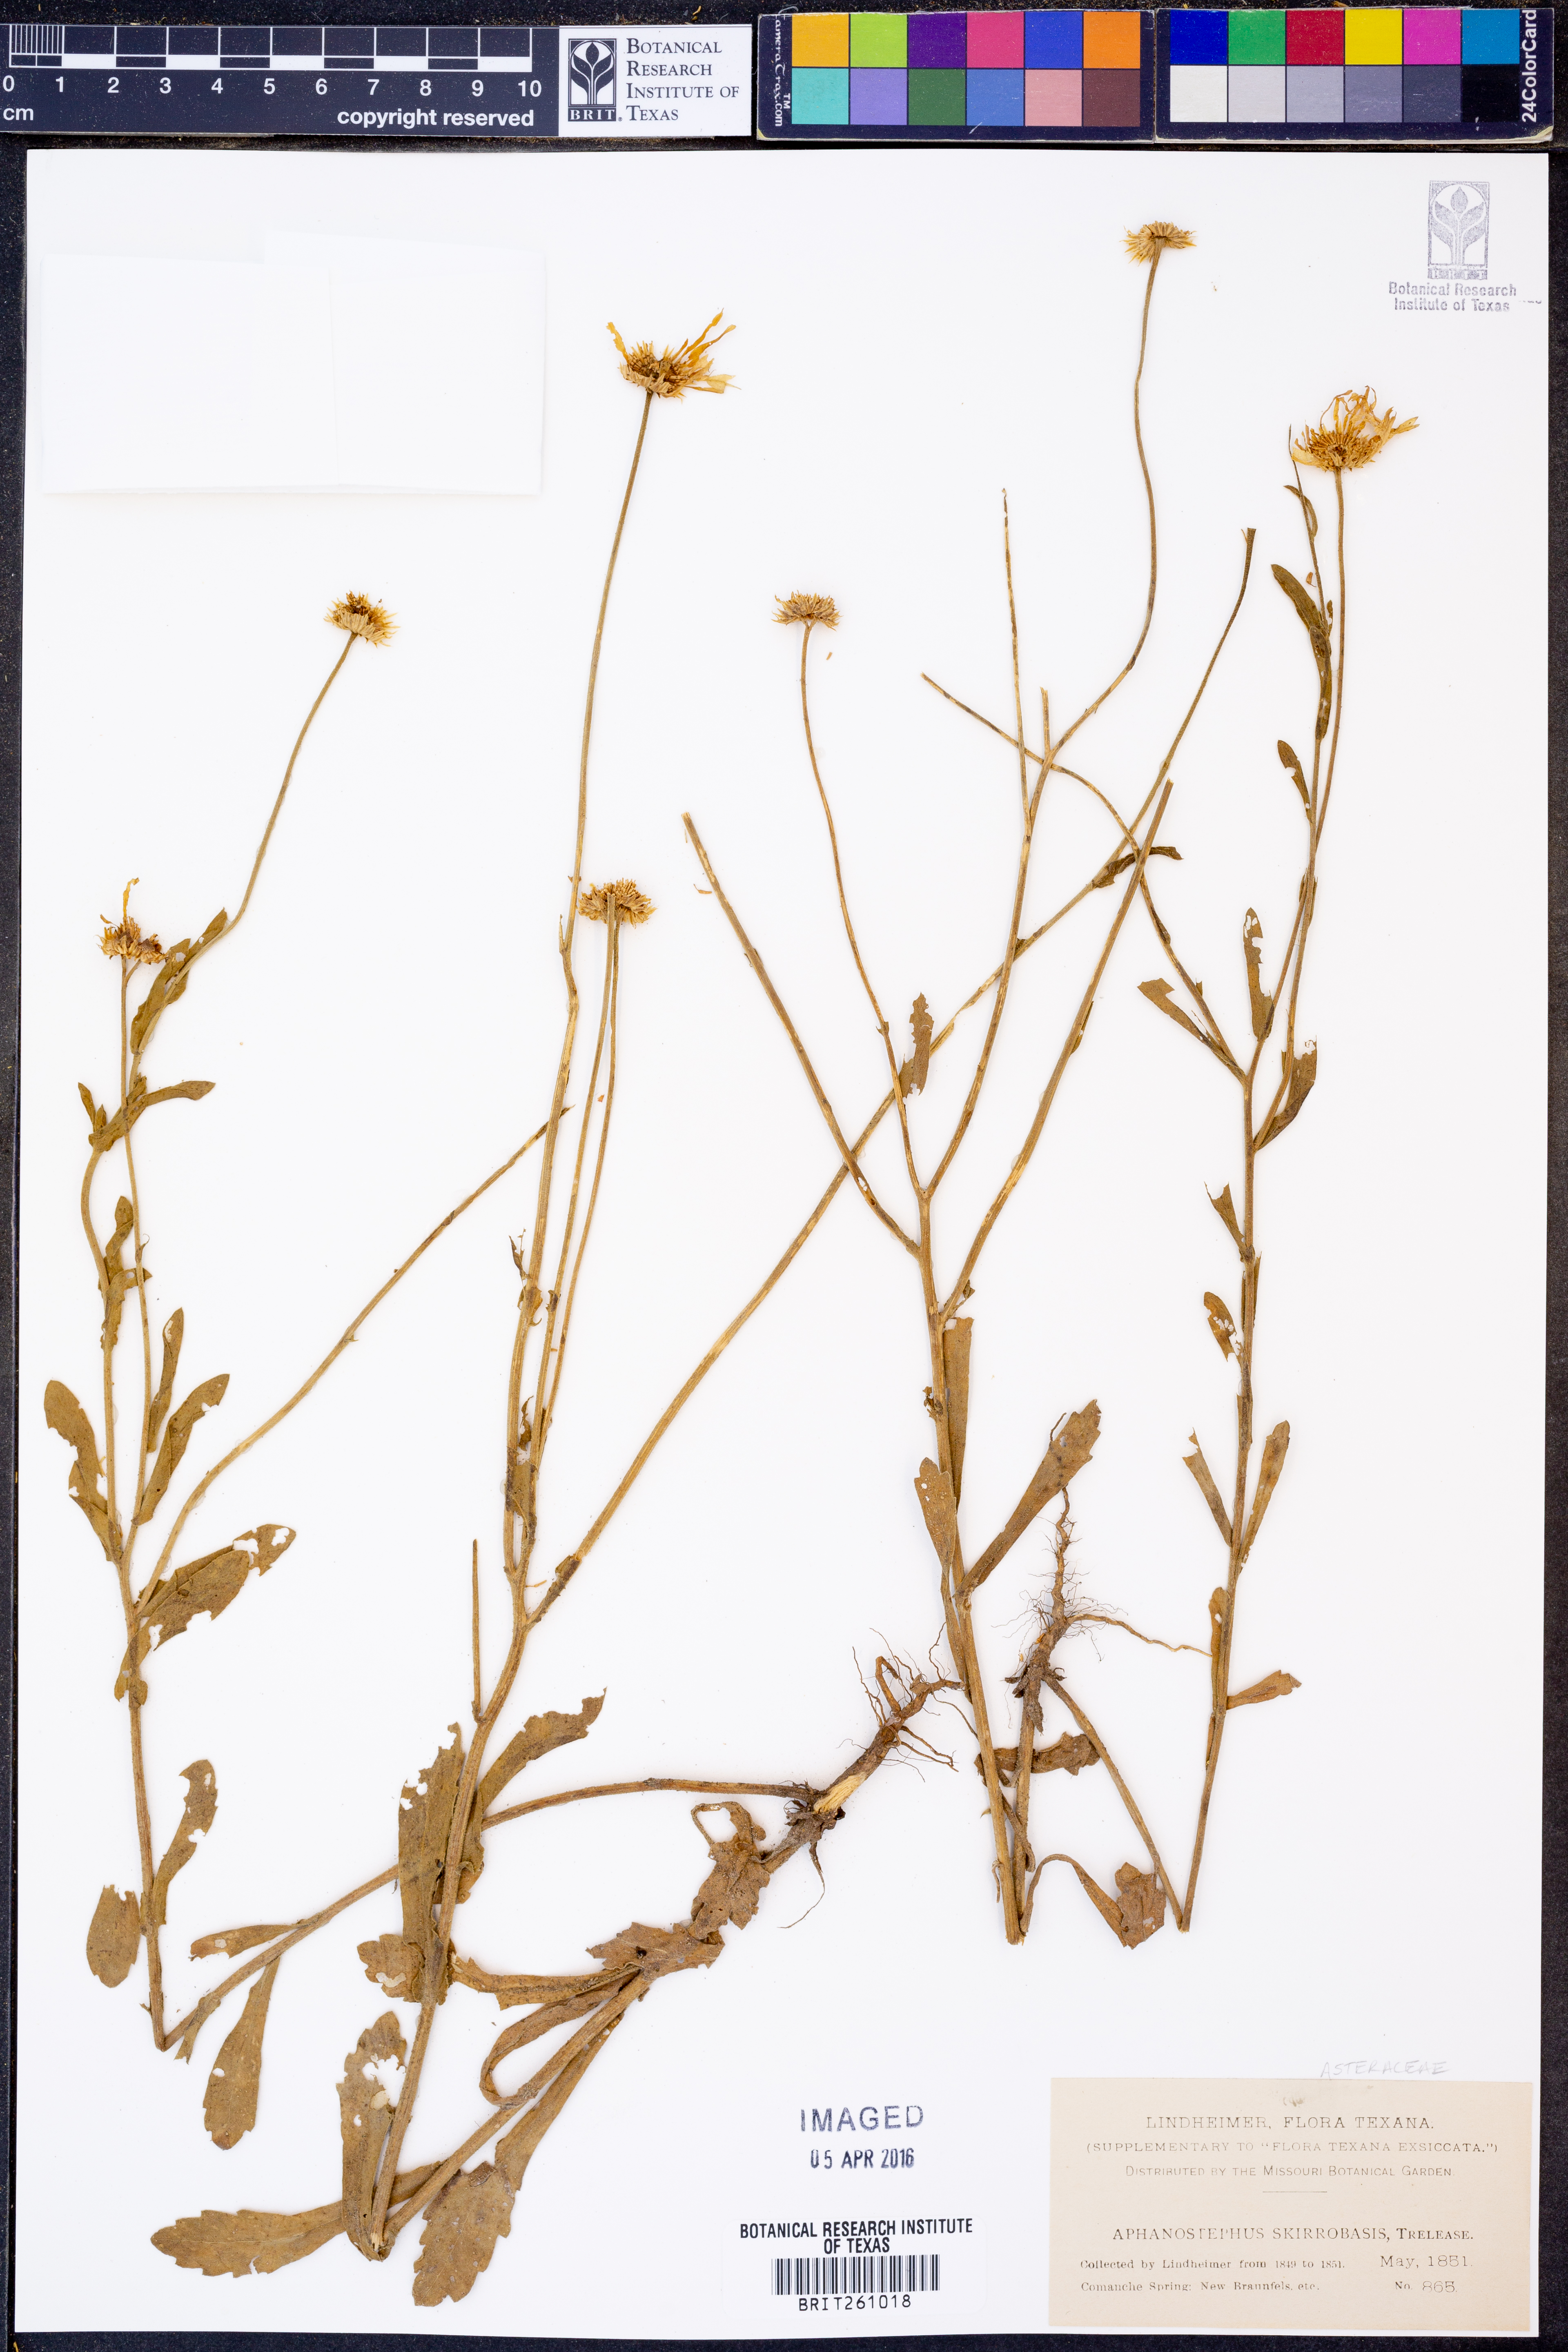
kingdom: Plantae
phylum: Tracheophyta
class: Magnoliopsida
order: Asterales
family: Asteraceae
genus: Aphanostephus
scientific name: Aphanostephus skirrhobasis
